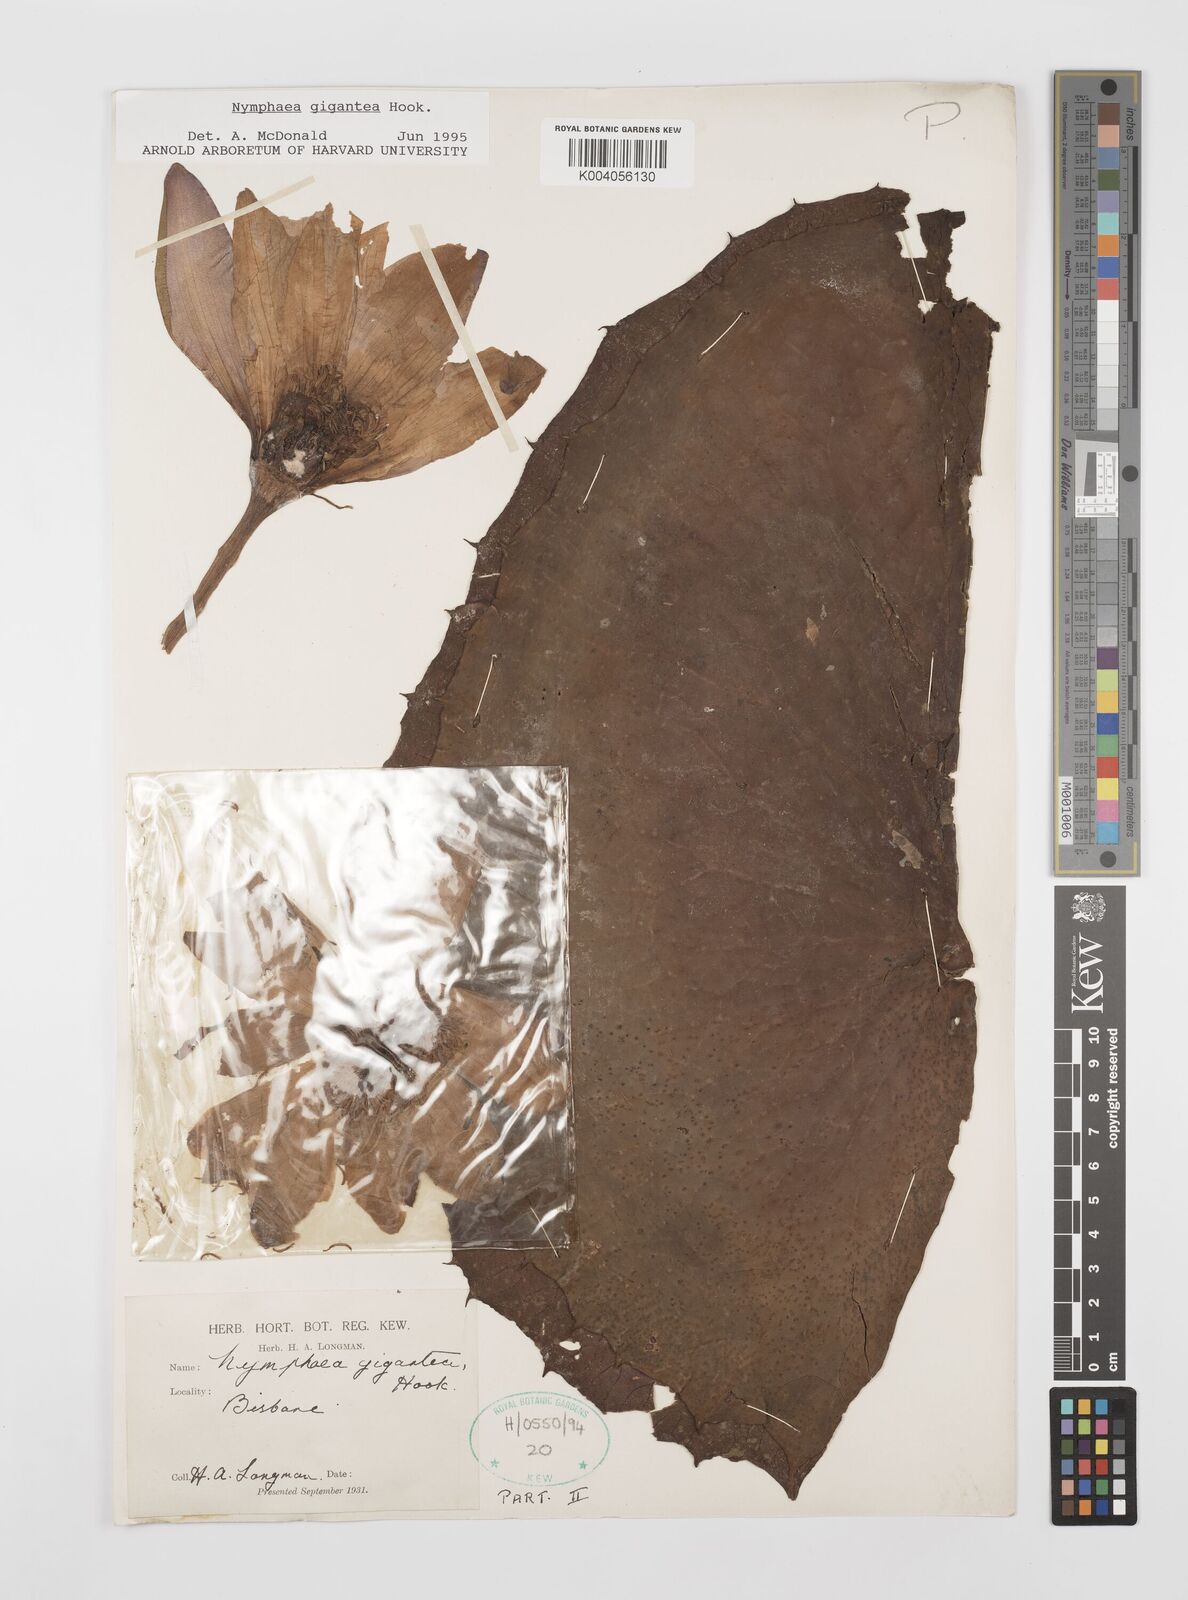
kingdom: Plantae
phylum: Tracheophyta
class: Magnoliopsida
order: Nymphaeales
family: Nymphaeaceae
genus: Nymphaea
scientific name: Nymphaea gigantea
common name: Giant water-lily
